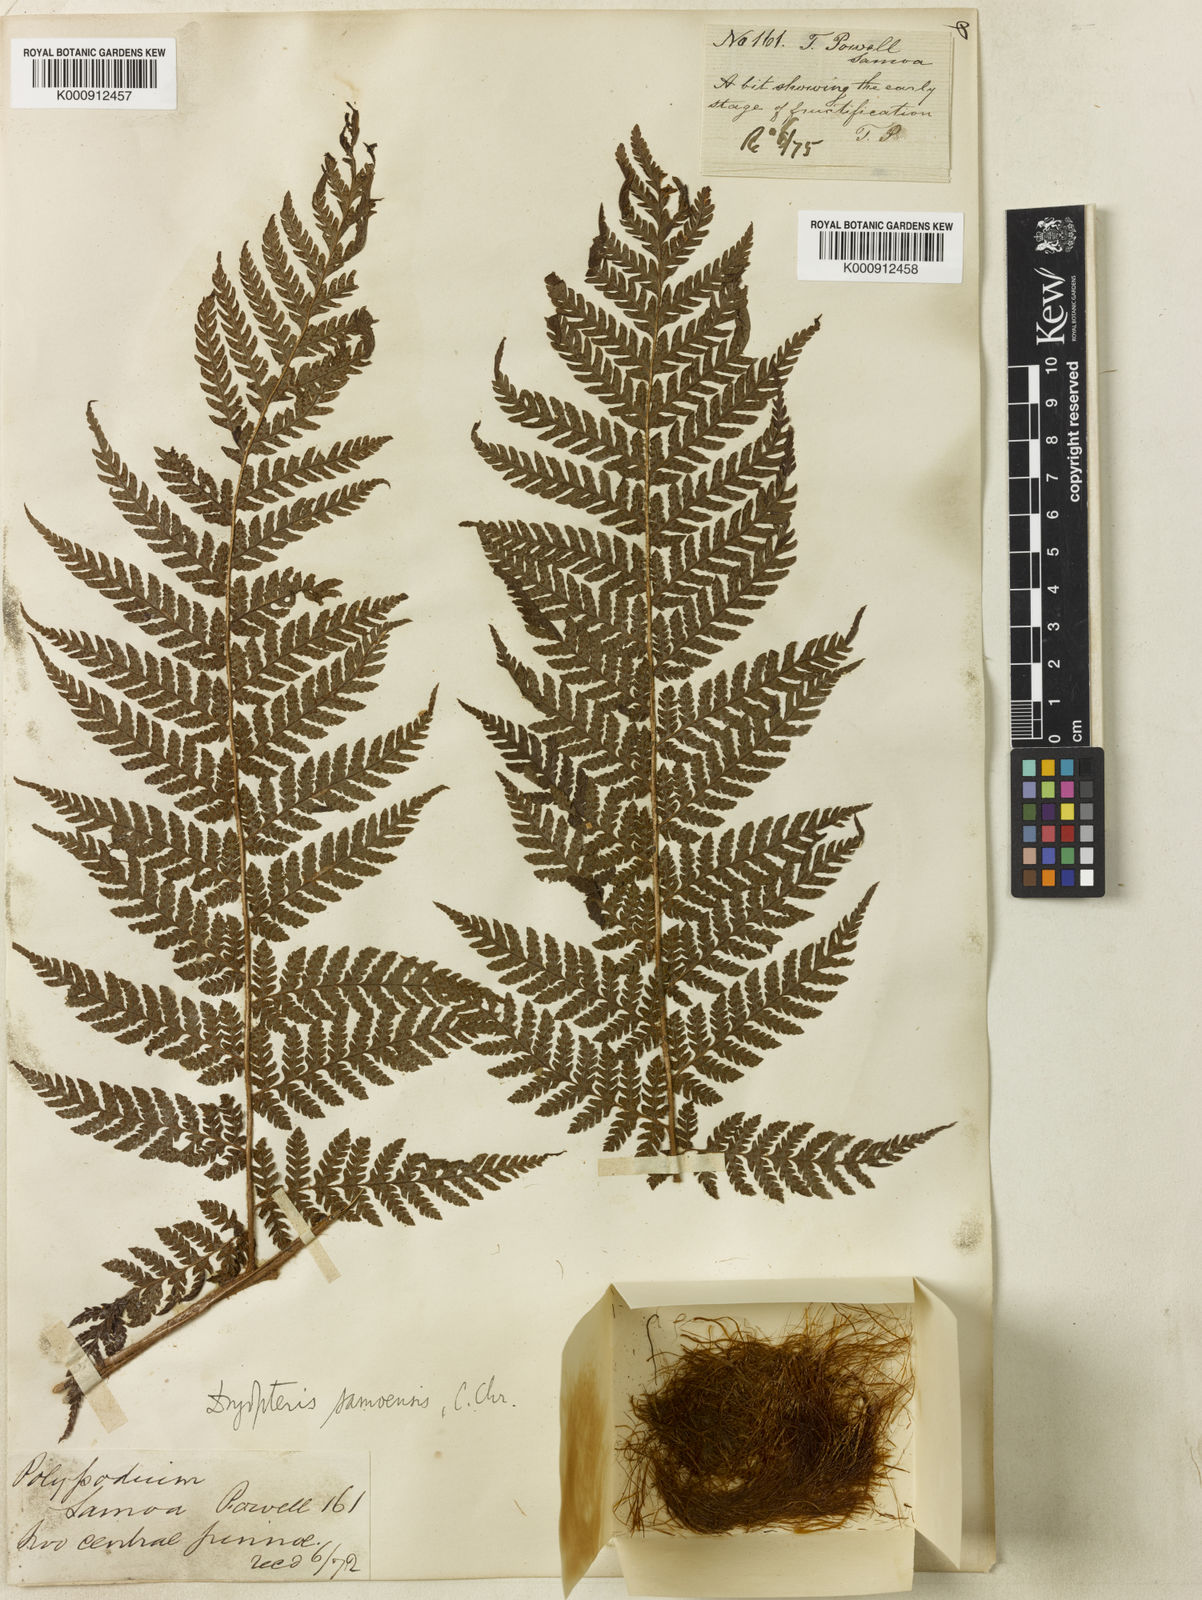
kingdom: Plantae
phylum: Tracheophyta
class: Polypodiopsida
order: Polypodiales
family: Dryopteridaceae
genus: Ctenitis
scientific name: Ctenitis samoensis
